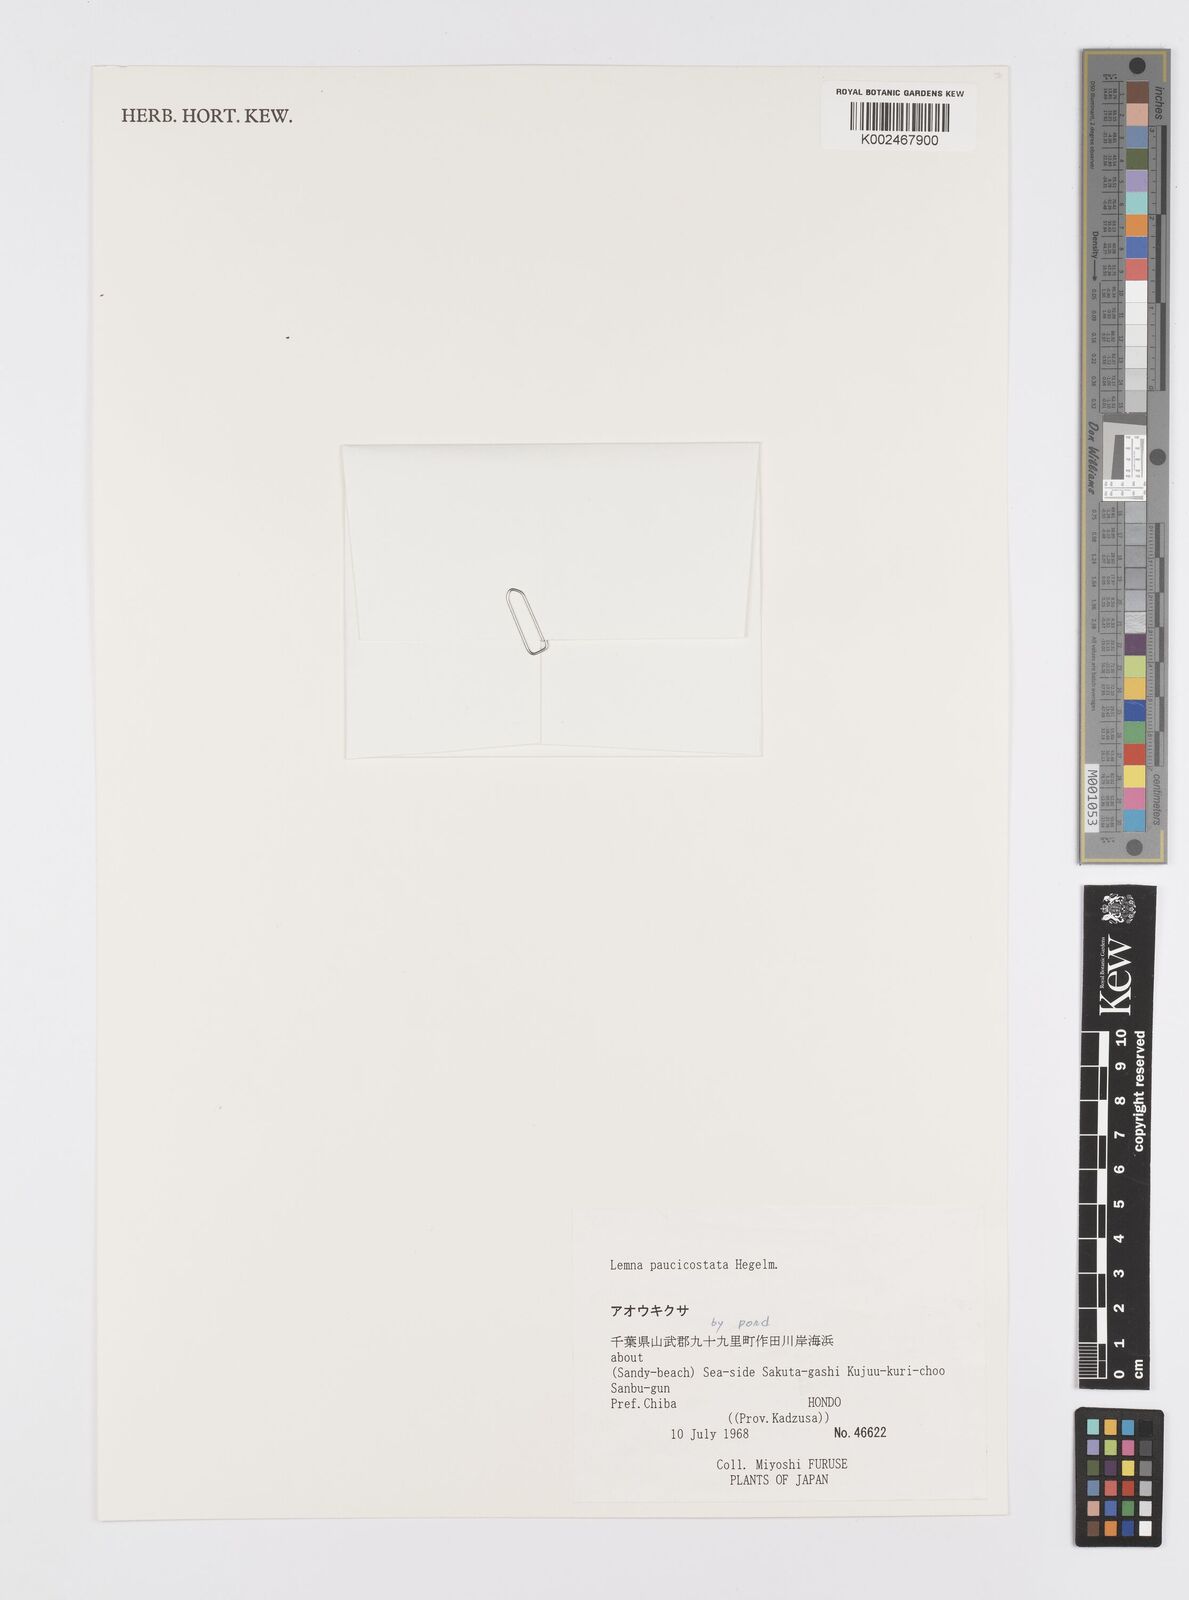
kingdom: Plantae
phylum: Tracheophyta
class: Liliopsida
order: Alismatales
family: Araceae
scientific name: Araceae
